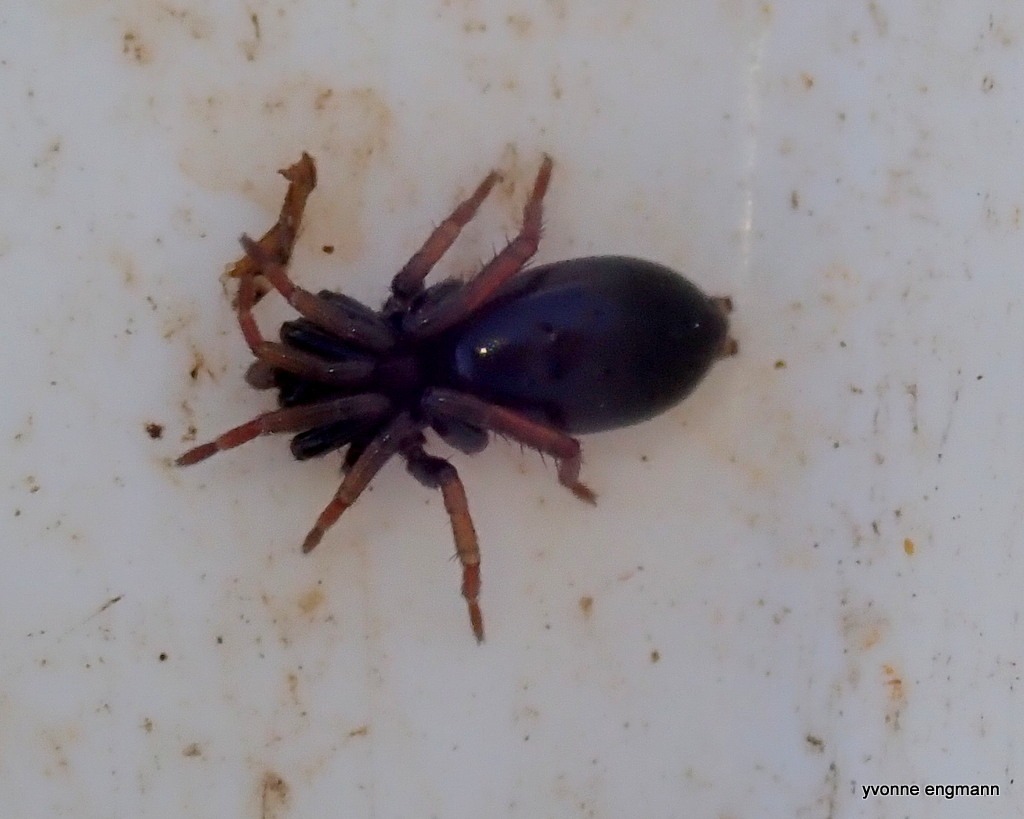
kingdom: Animalia
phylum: Arthropoda
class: Arachnida
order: Araneae
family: Gnaphosidae
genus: Trachyzelotes
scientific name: Trachyzelotes pedestris
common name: Rødbenet ninja
